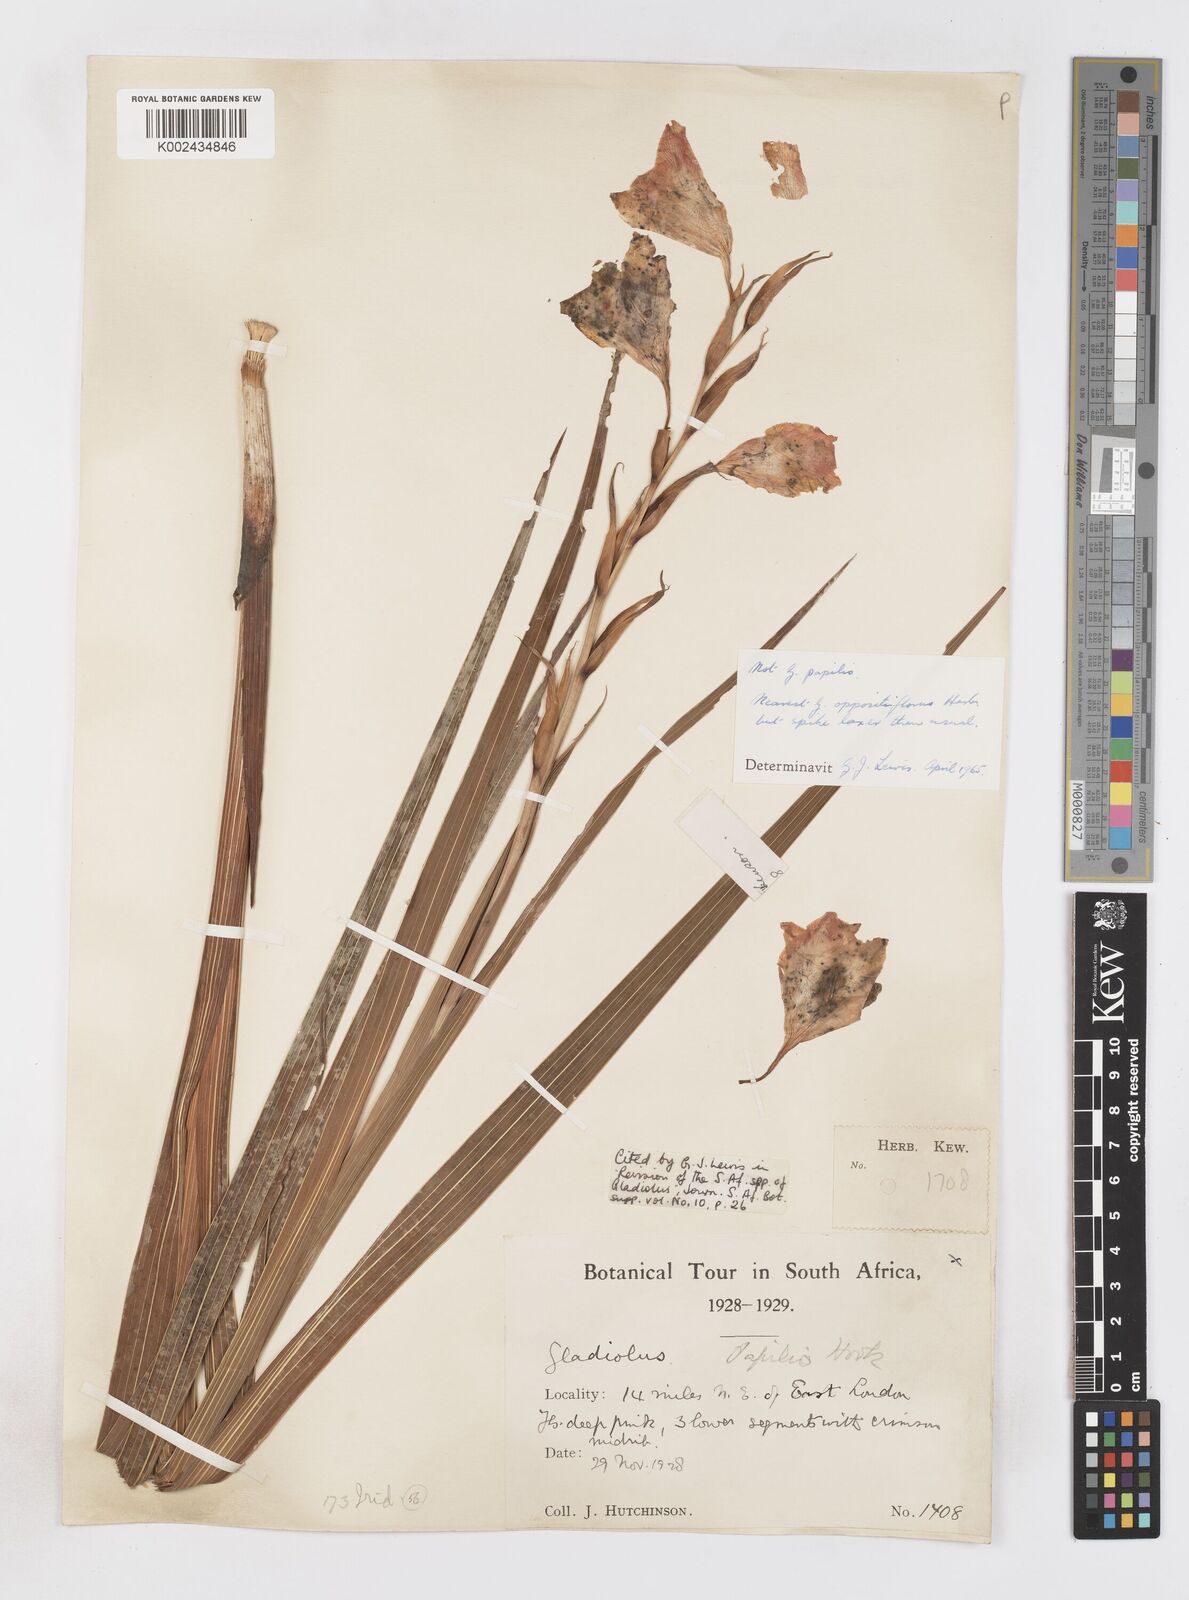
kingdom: Plantae
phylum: Tracheophyta
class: Liliopsida
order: Asparagales
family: Iridaceae
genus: Gladiolus
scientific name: Gladiolus oppositiflorus
